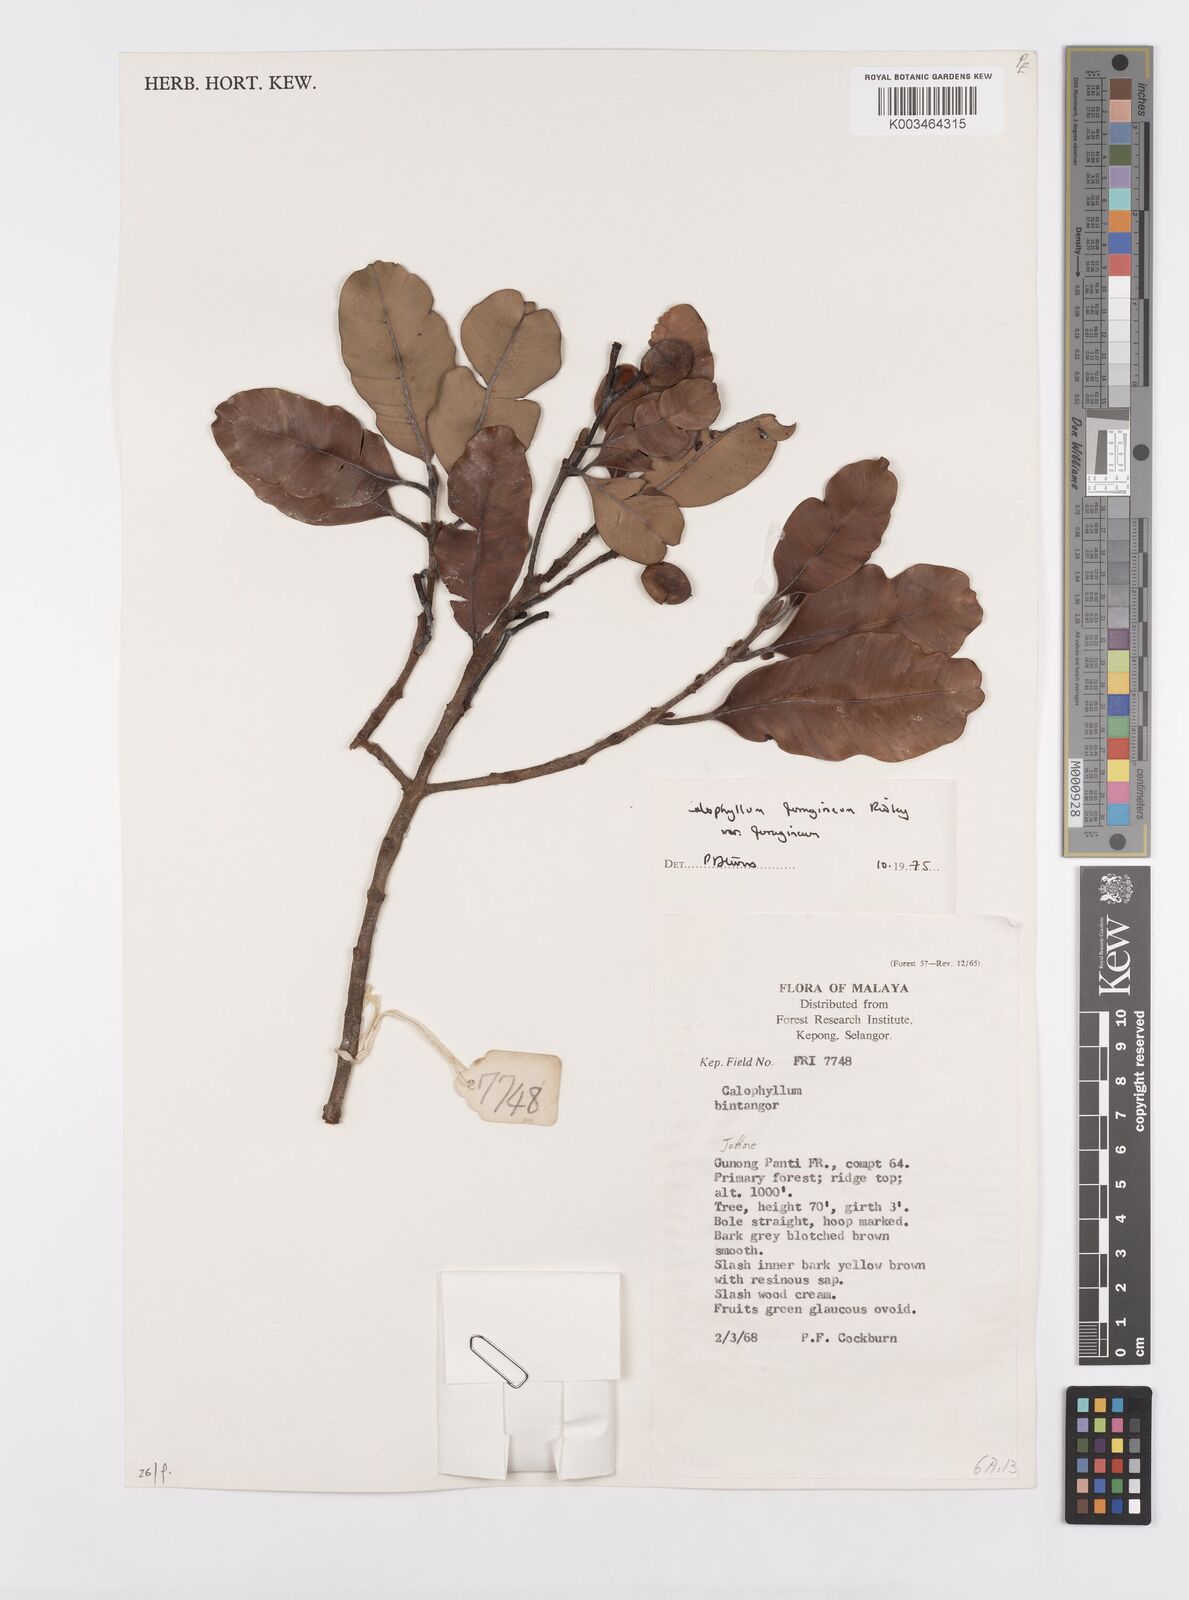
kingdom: Plantae
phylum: Tracheophyta
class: Magnoliopsida
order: Malpighiales
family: Calophyllaceae
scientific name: Calophyllaceae
